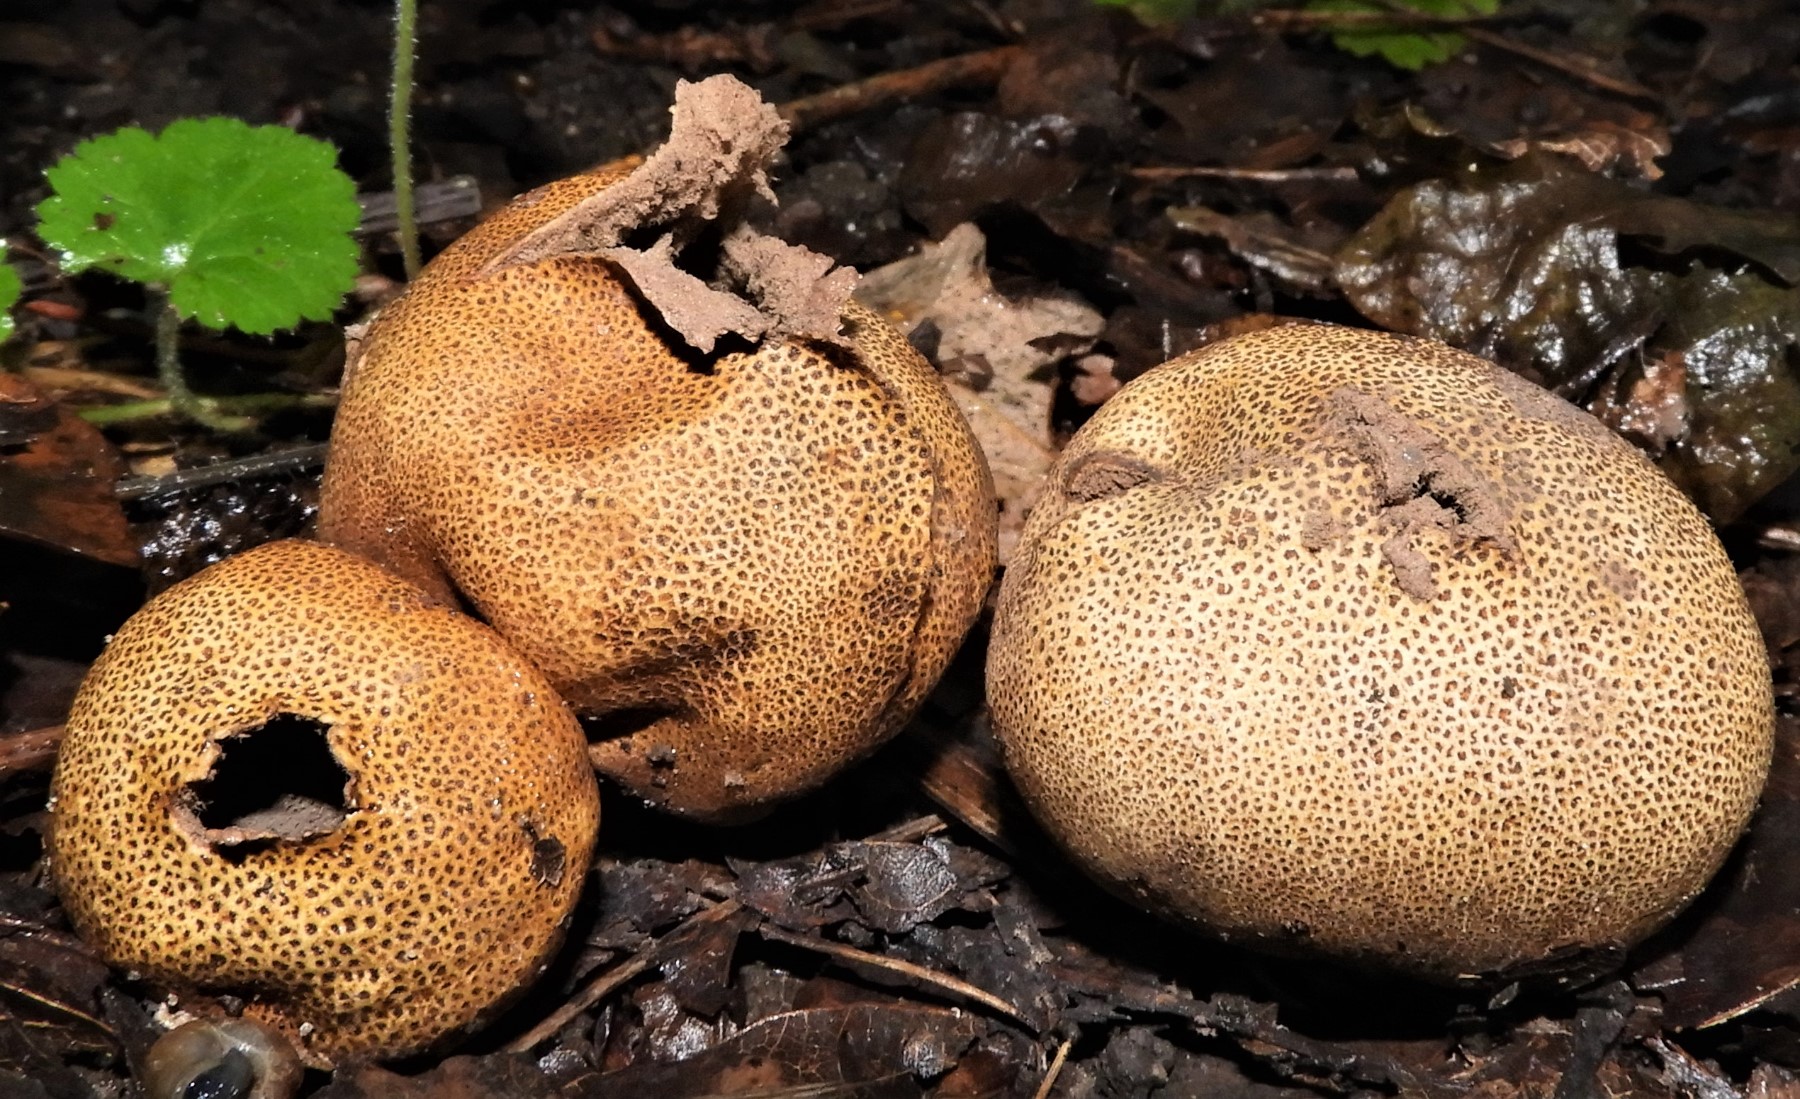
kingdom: Fungi
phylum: Basidiomycota
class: Agaricomycetes
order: Boletales
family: Sclerodermataceae
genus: Scleroderma
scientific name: Scleroderma areolatum
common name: plettet bruskbold
